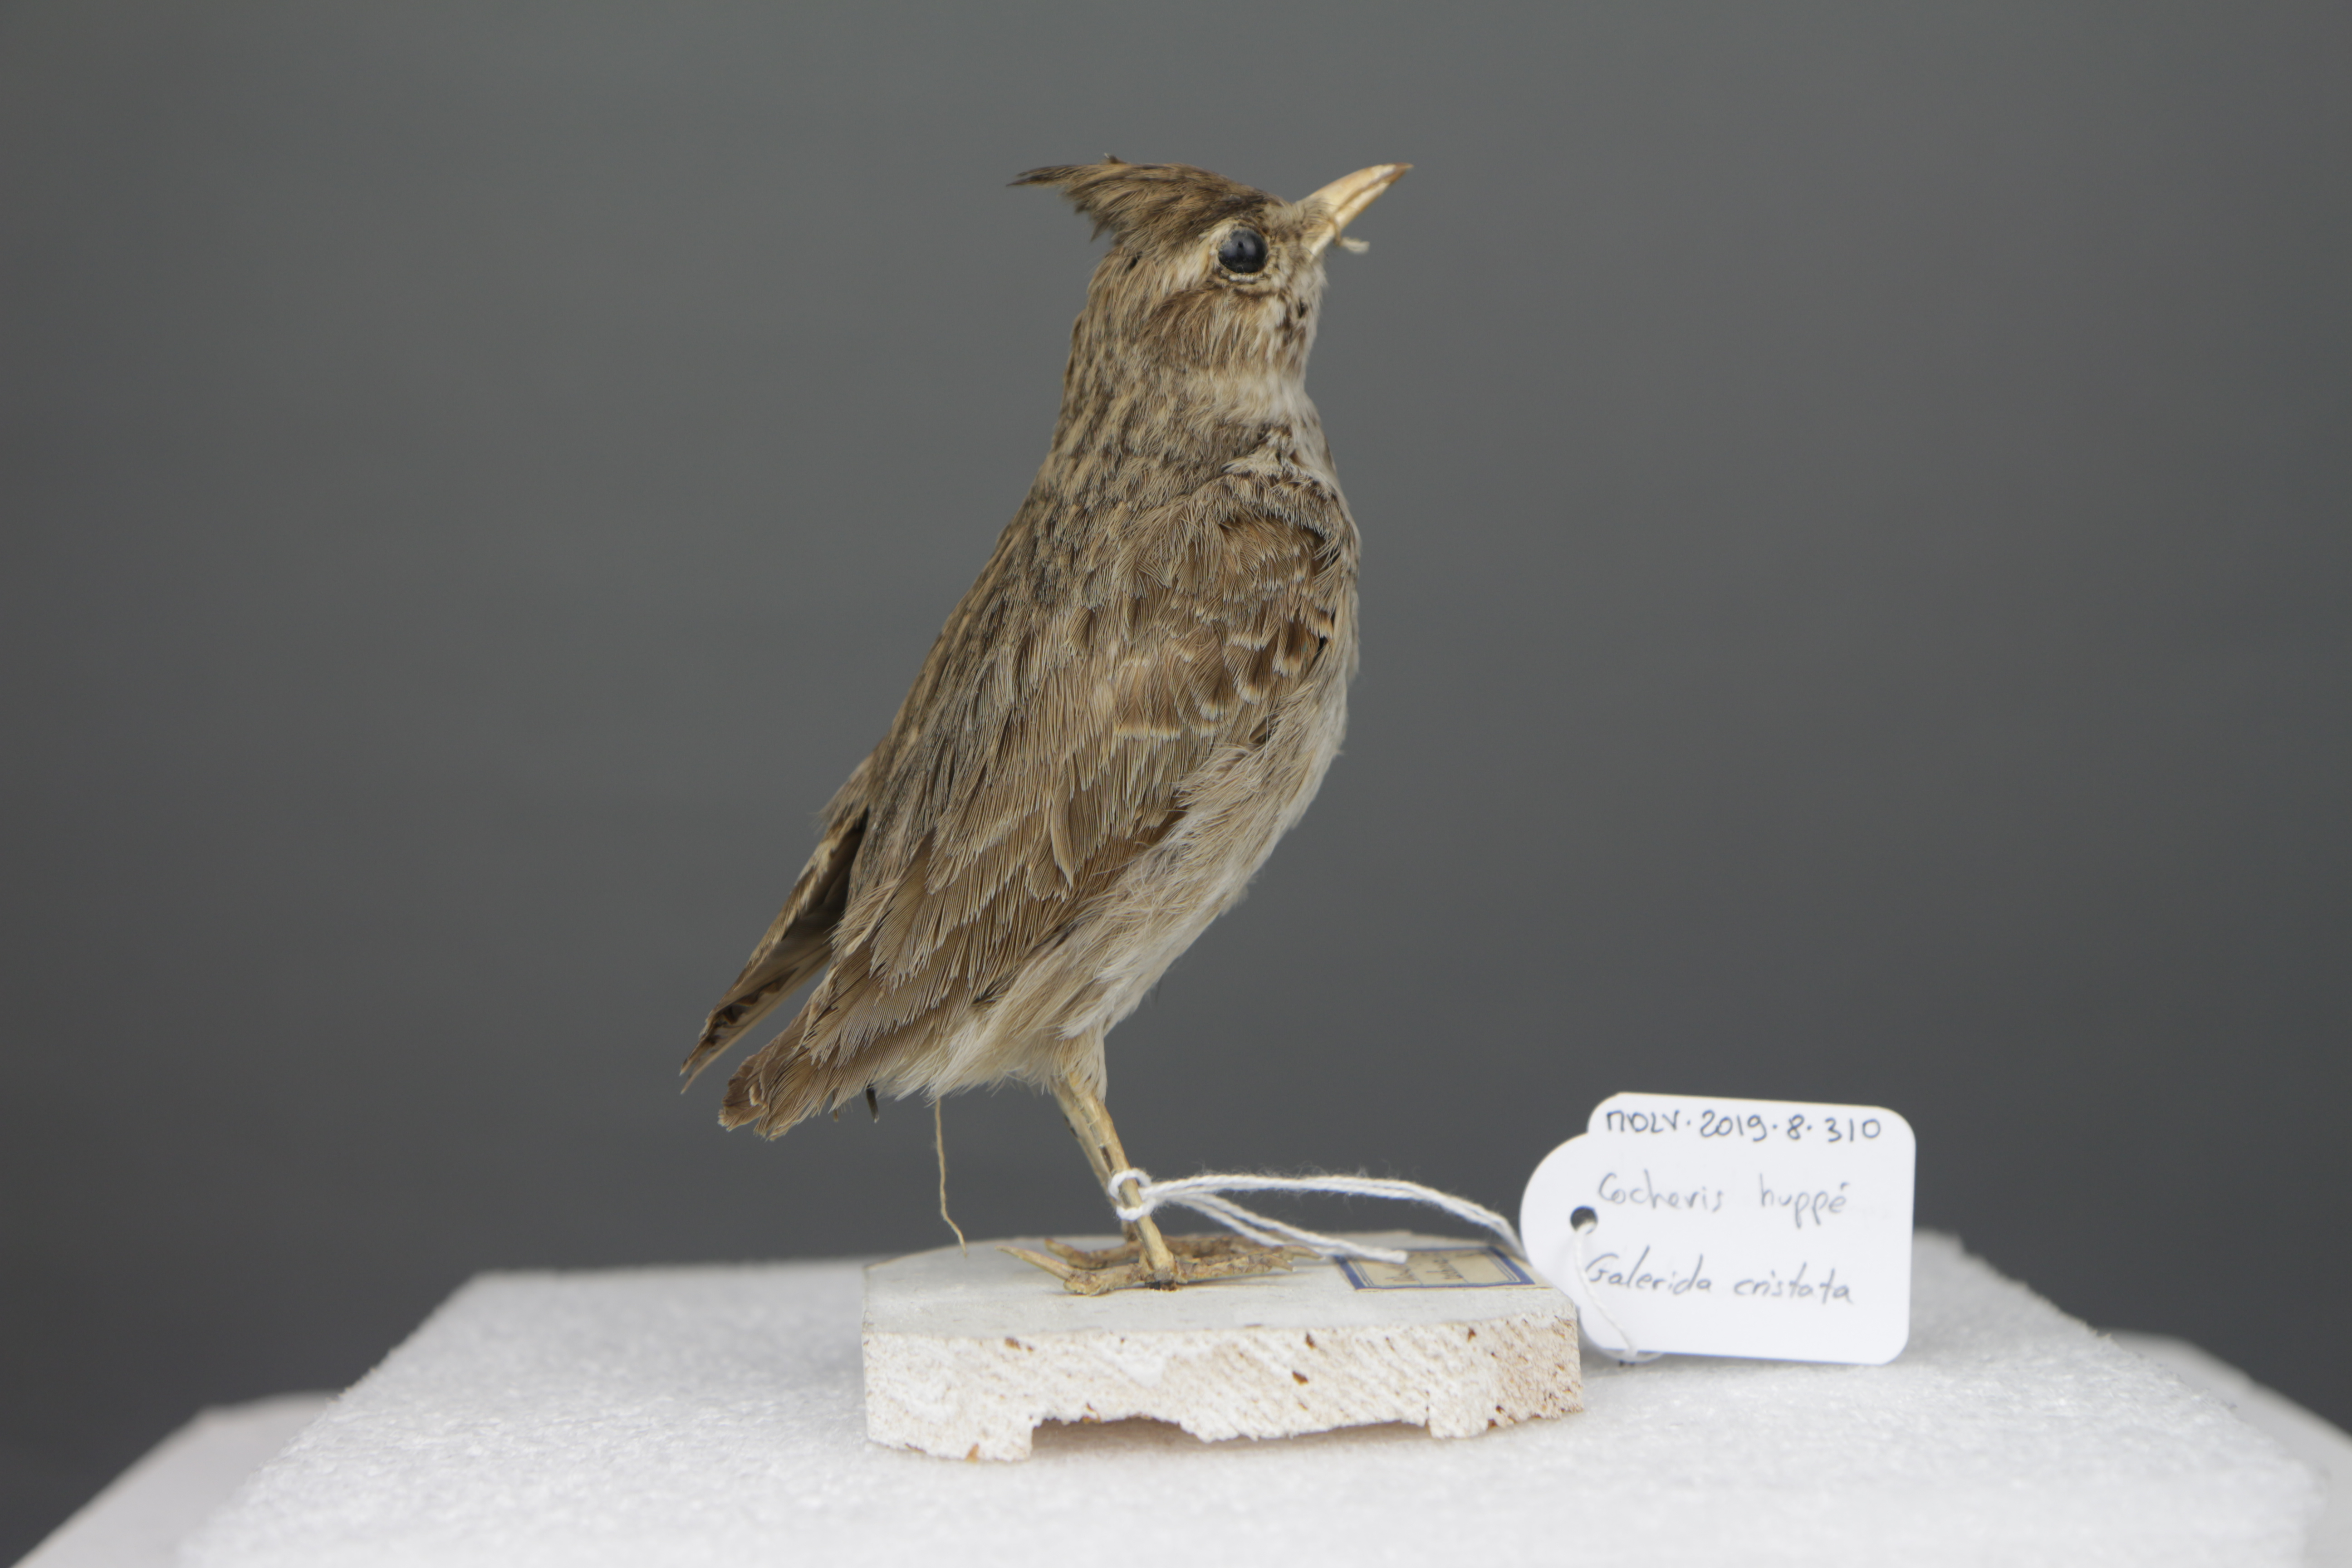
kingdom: Animalia
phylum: Chordata
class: Aves
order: Passeriformes
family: Alaudidae
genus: Galerida
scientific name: Galerida cristata
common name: Crested lark
